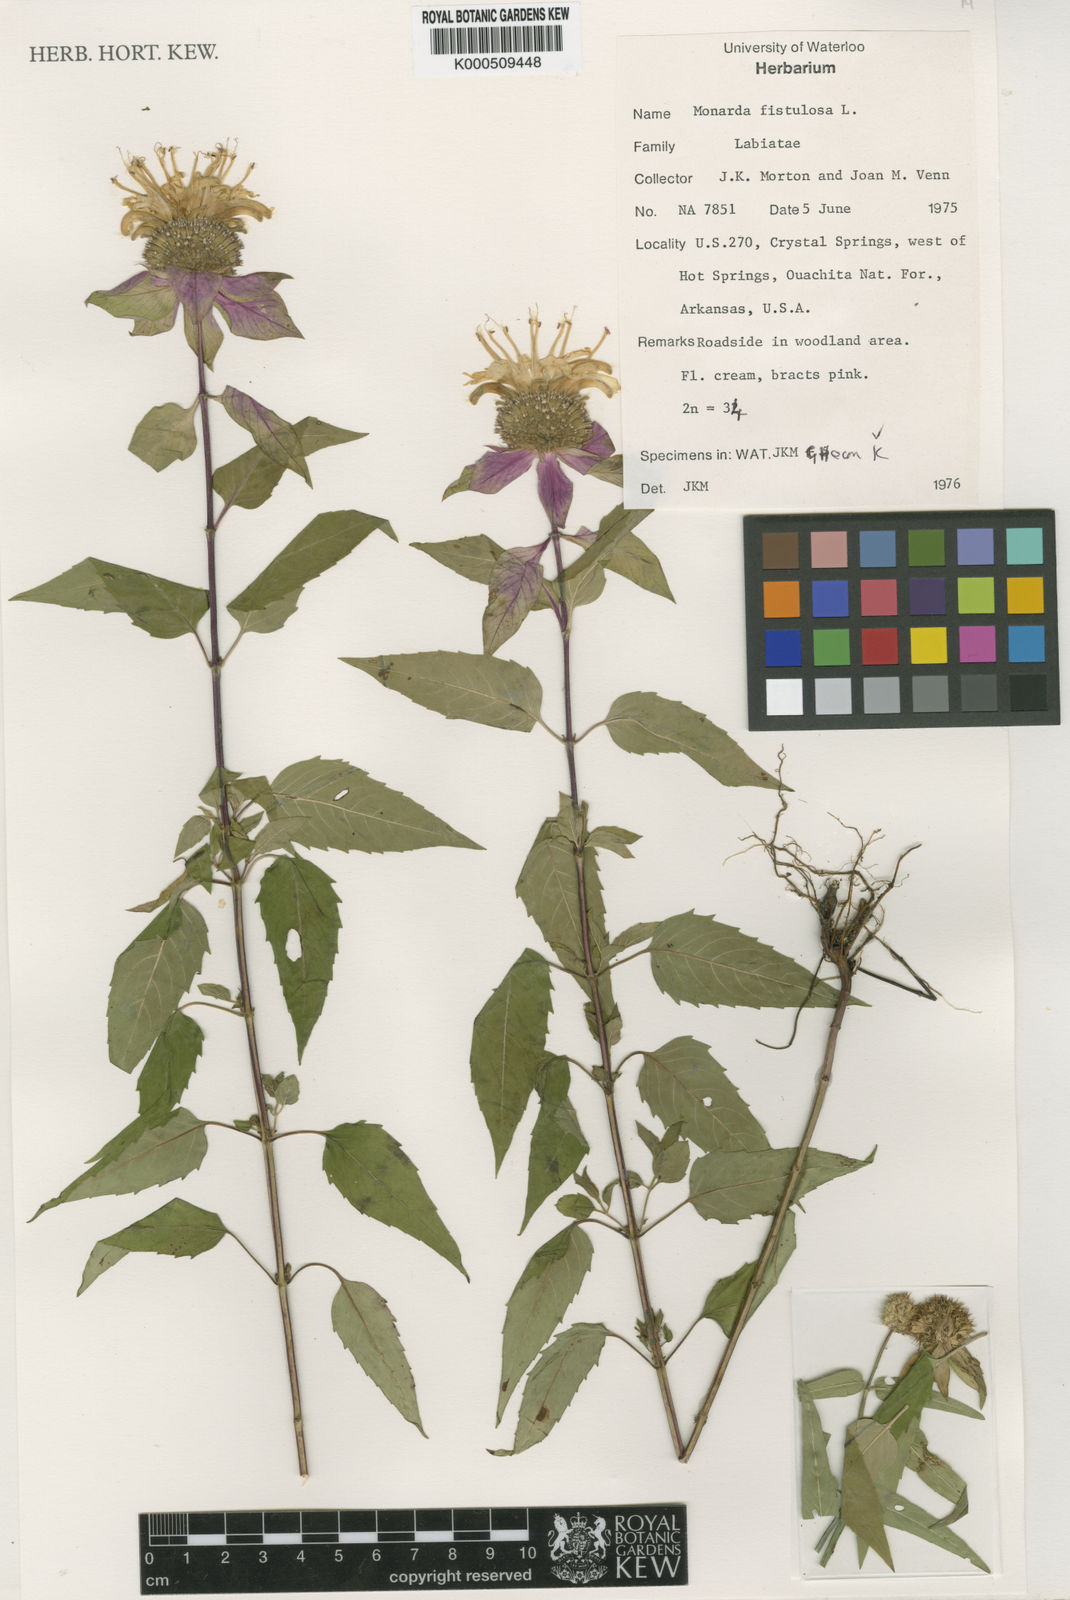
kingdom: Plantae
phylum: Tracheophyta
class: Magnoliopsida
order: Lamiales
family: Lamiaceae
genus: Monarda
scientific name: Monarda fistulosa
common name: Purple beebalm
